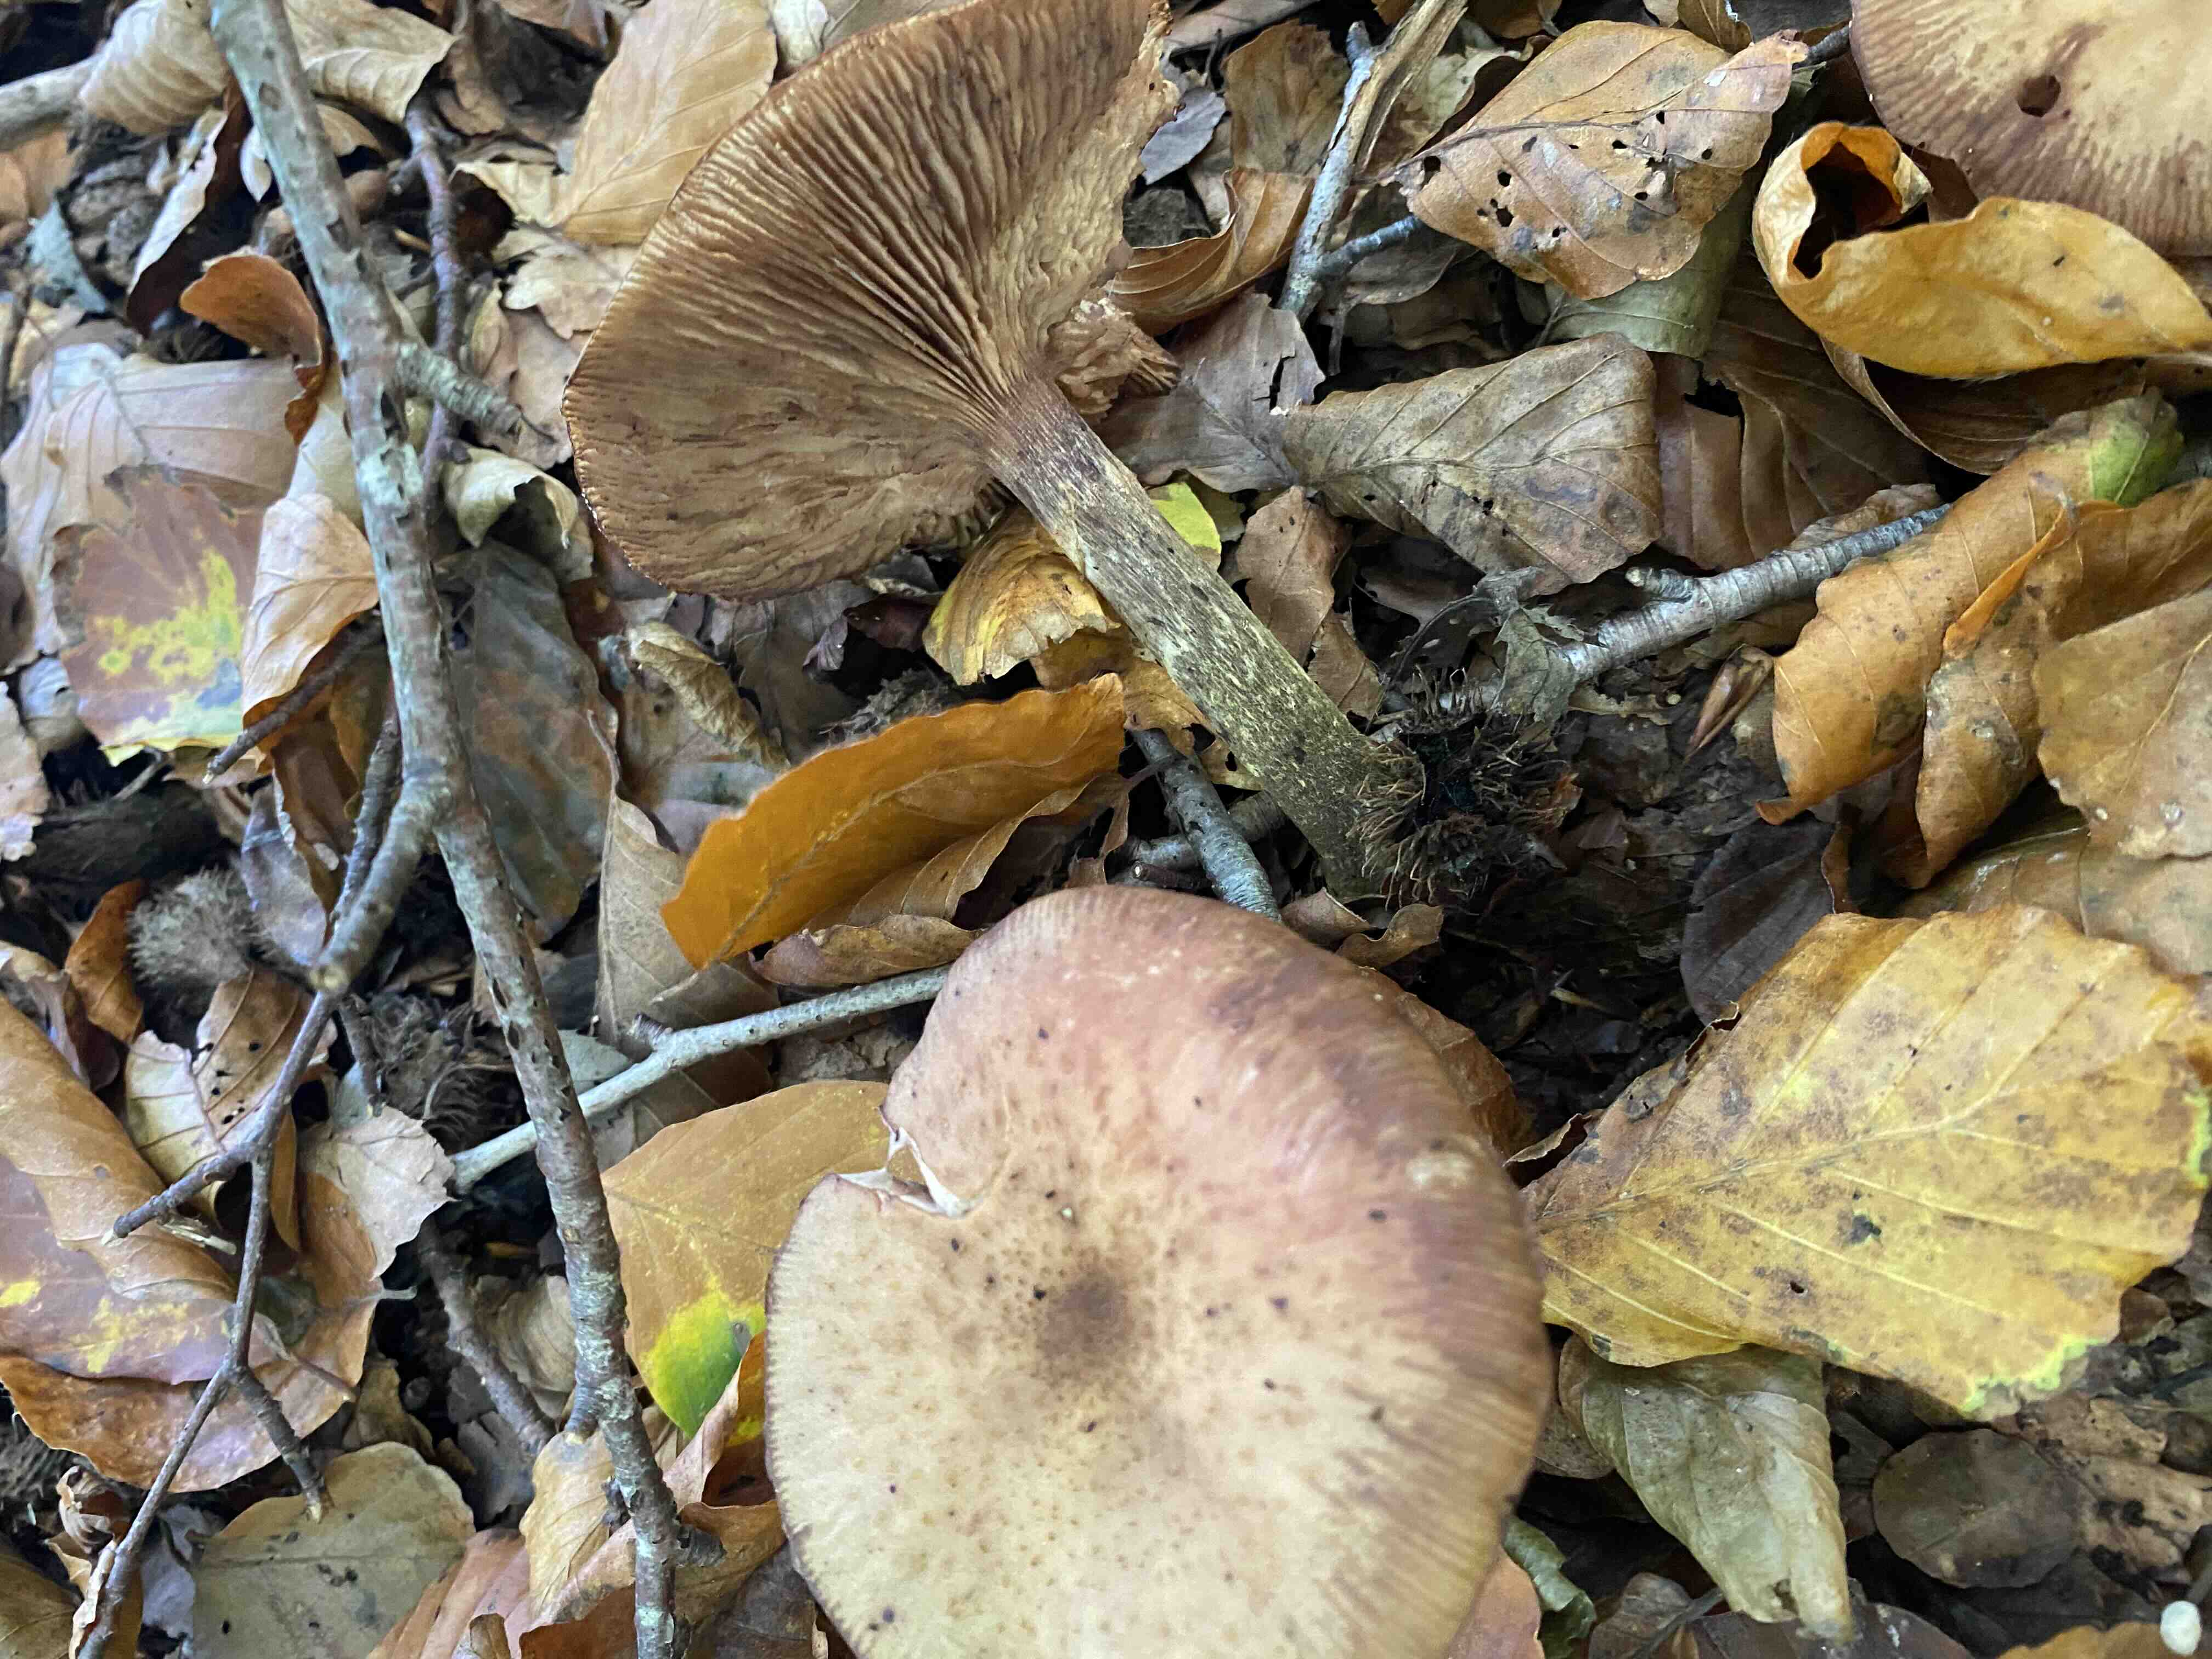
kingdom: Fungi
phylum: Basidiomycota
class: Agaricomycetes
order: Agaricales
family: Physalacriaceae
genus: Armillaria
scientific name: Armillaria
